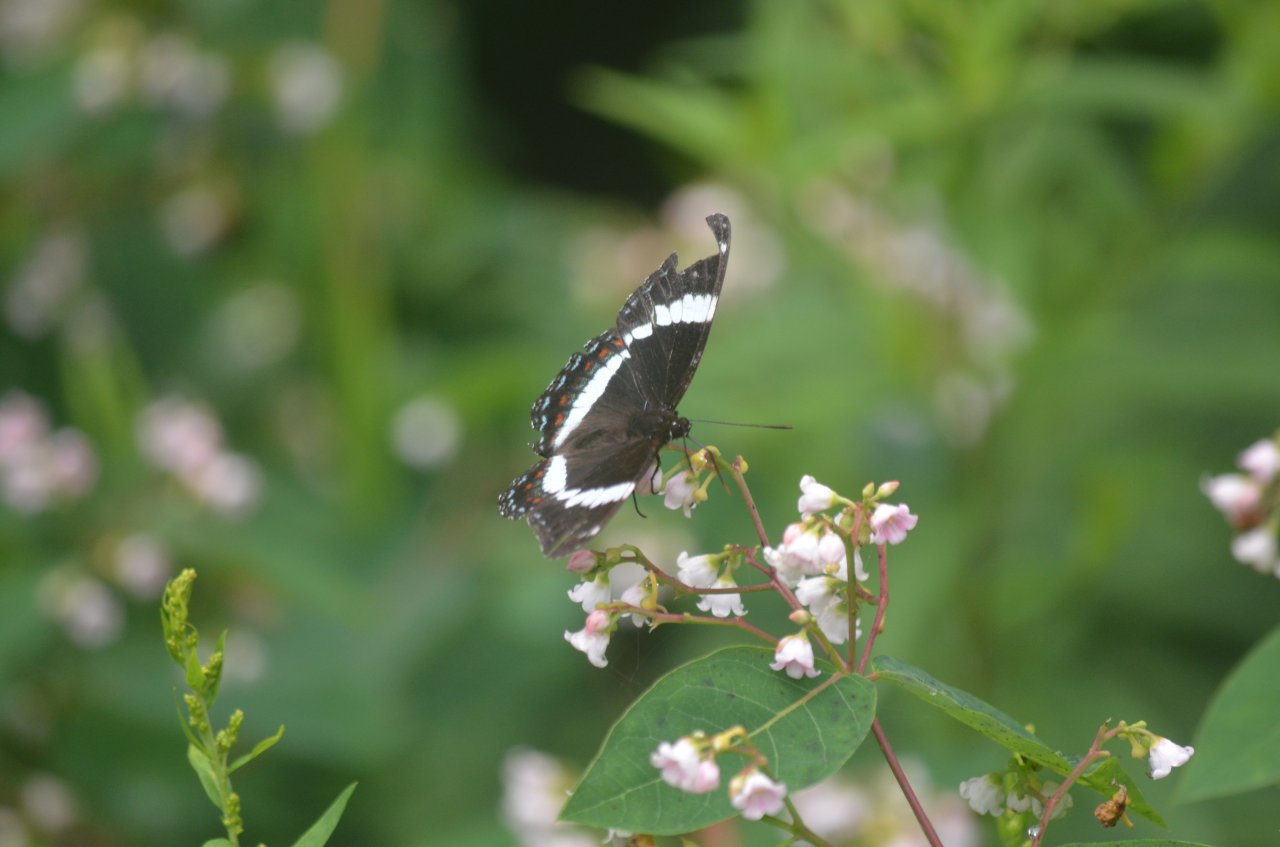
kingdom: Animalia
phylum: Arthropoda
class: Insecta
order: Lepidoptera
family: Nymphalidae
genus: Limenitis
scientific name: Limenitis arthemis
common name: Red-spotted Admiral
